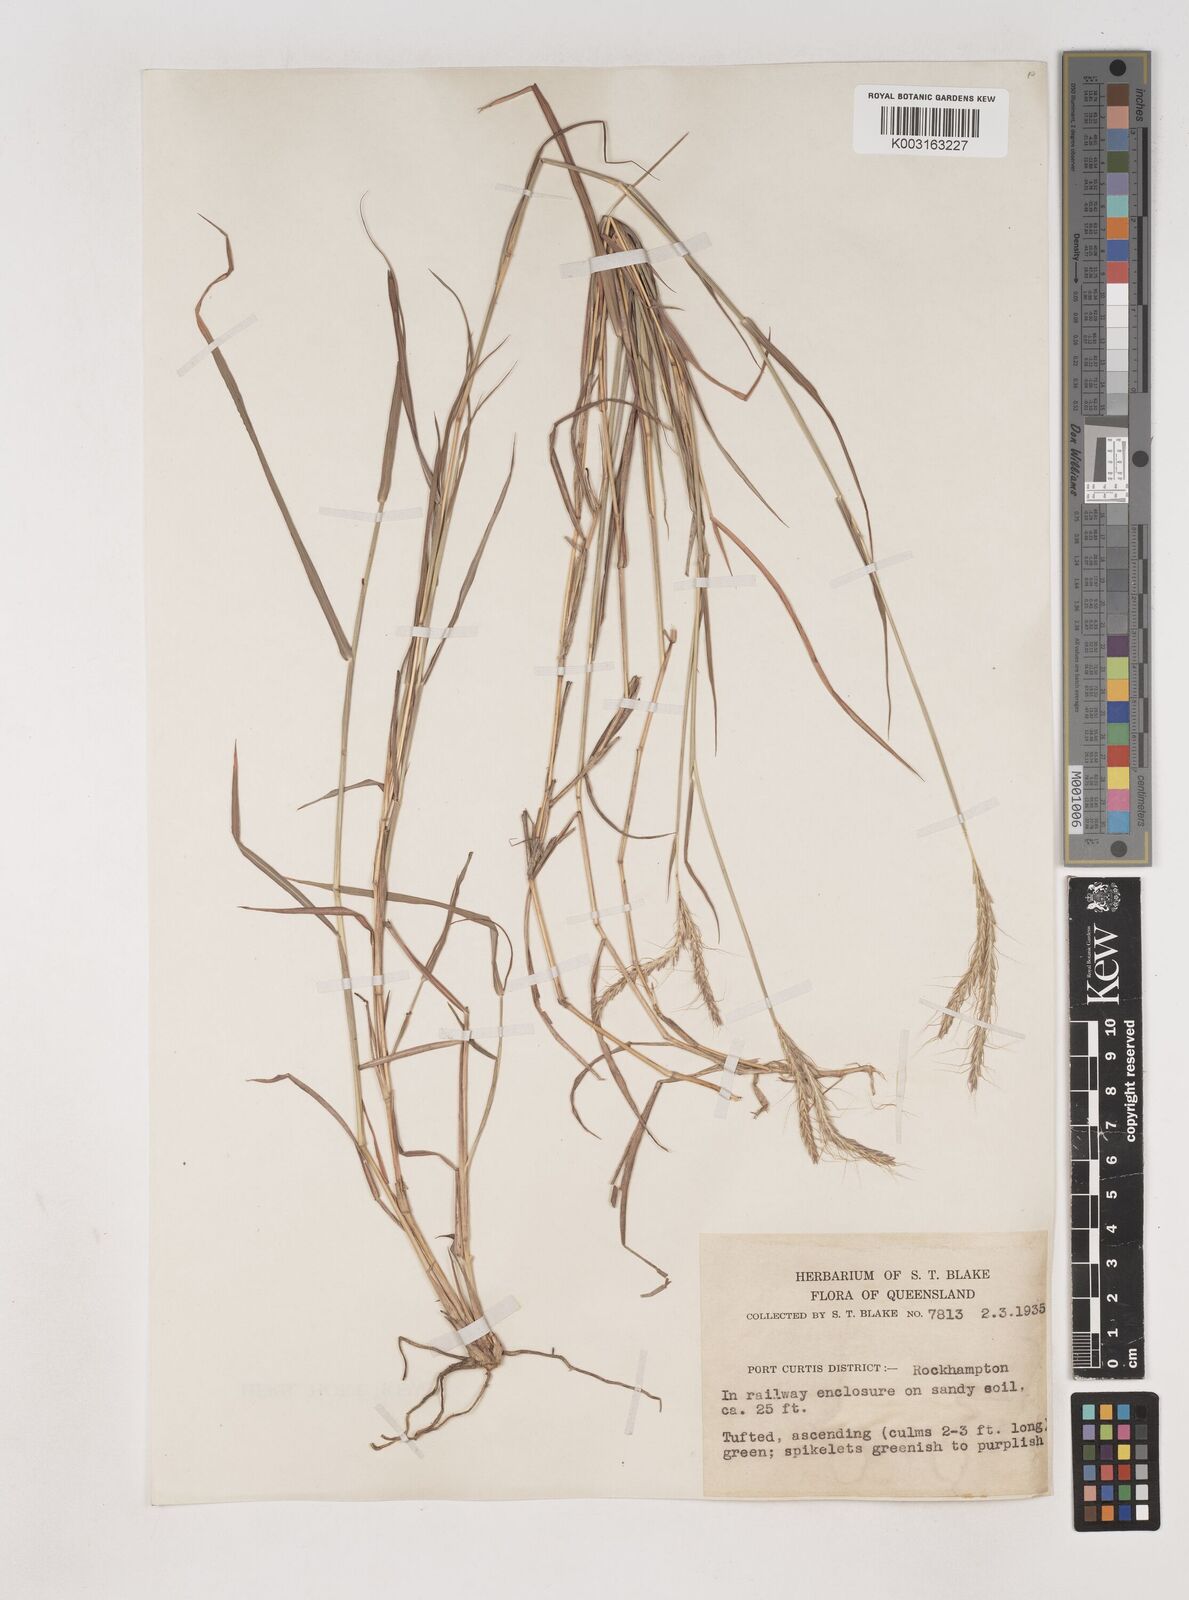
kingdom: Plantae
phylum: Tracheophyta
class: Liliopsida
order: Poales
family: Poaceae
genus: Dichanthium
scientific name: Dichanthium fecundum
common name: Bundle-bundle
